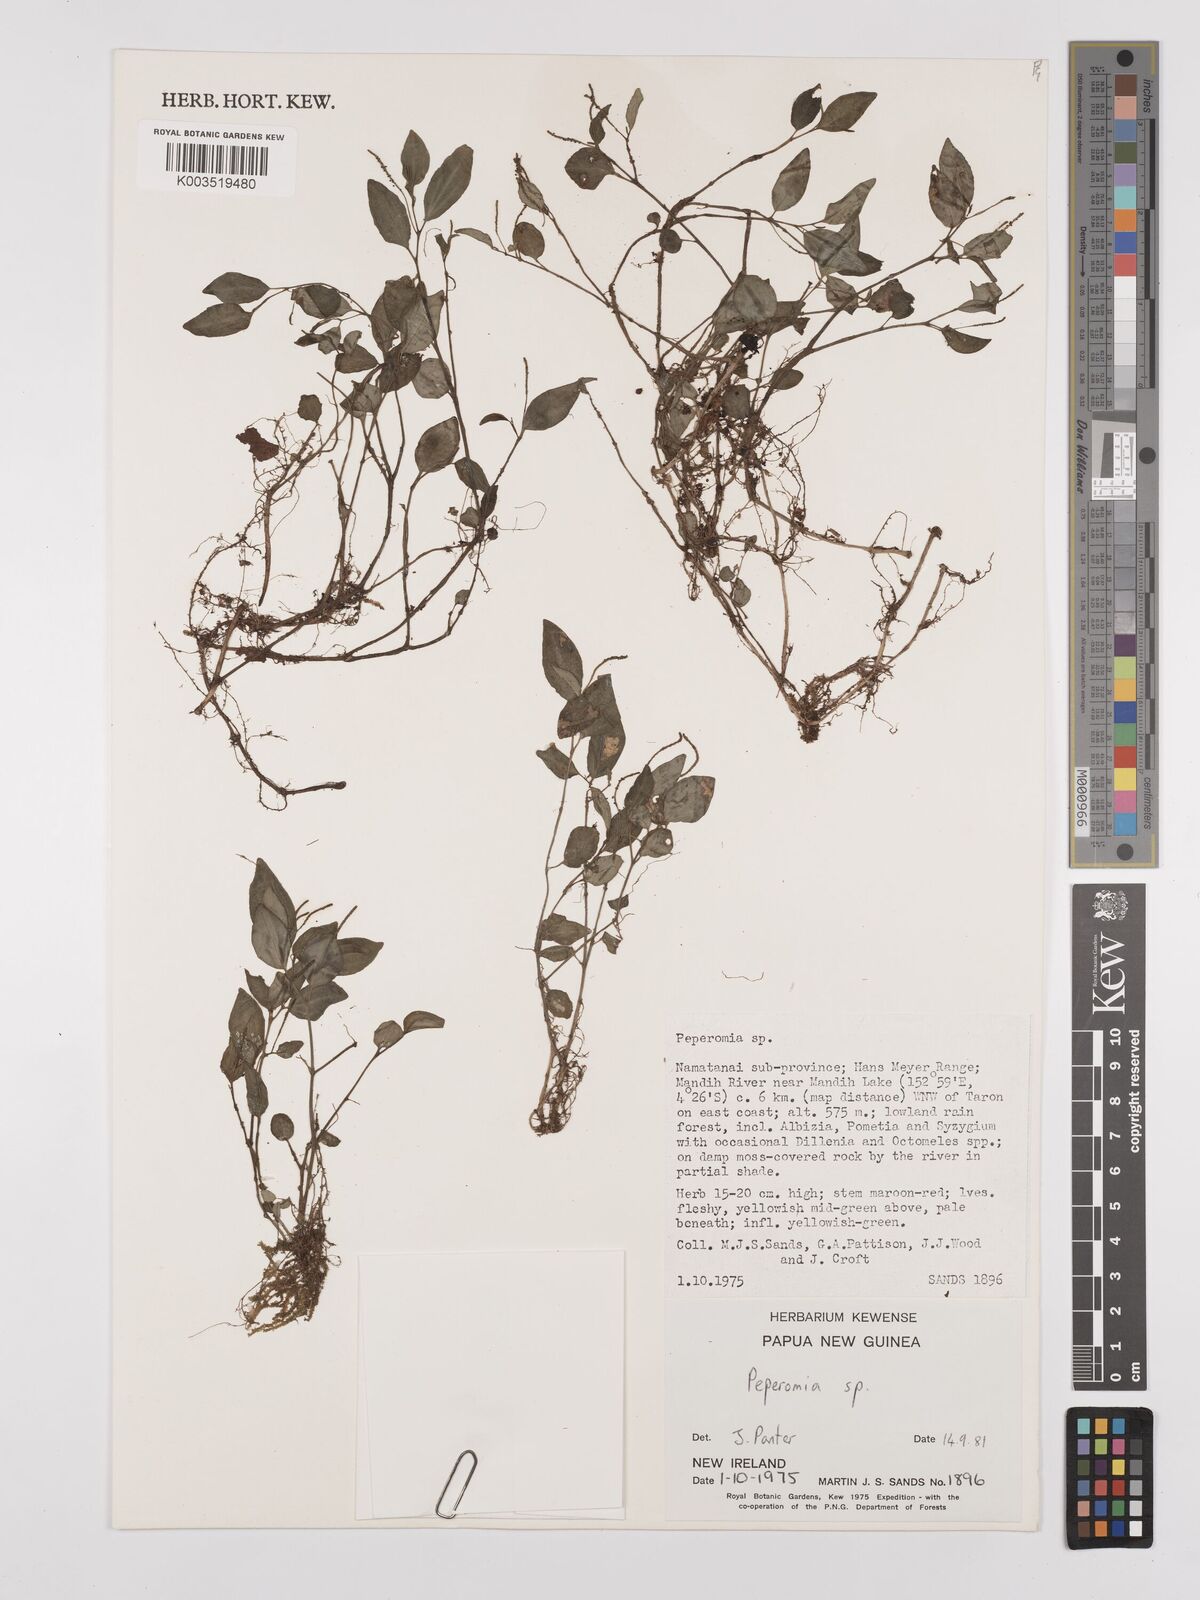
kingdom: Plantae
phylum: Tracheophyta
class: Magnoliopsida
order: Piperales
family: Piperaceae
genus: Peperomia
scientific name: Peperomia
